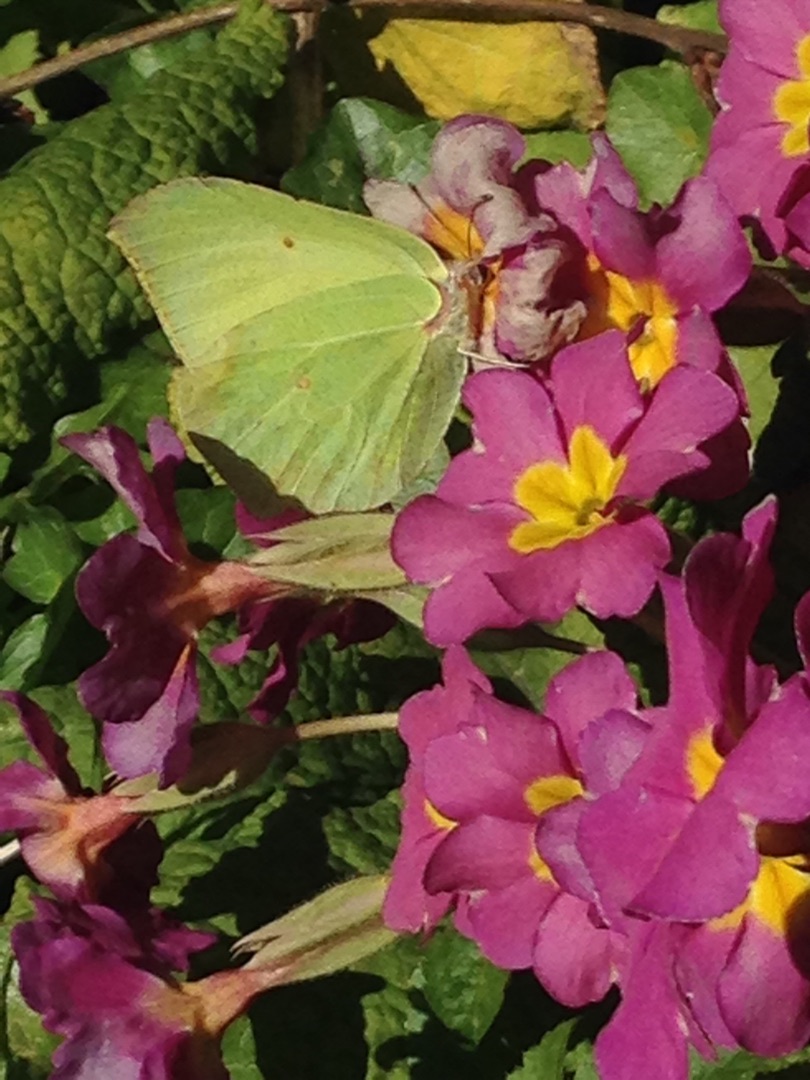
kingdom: Animalia
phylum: Arthropoda
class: Insecta
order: Lepidoptera
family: Pieridae
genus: Gonepteryx
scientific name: Gonepteryx rhamni
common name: Citronsommerfugl
